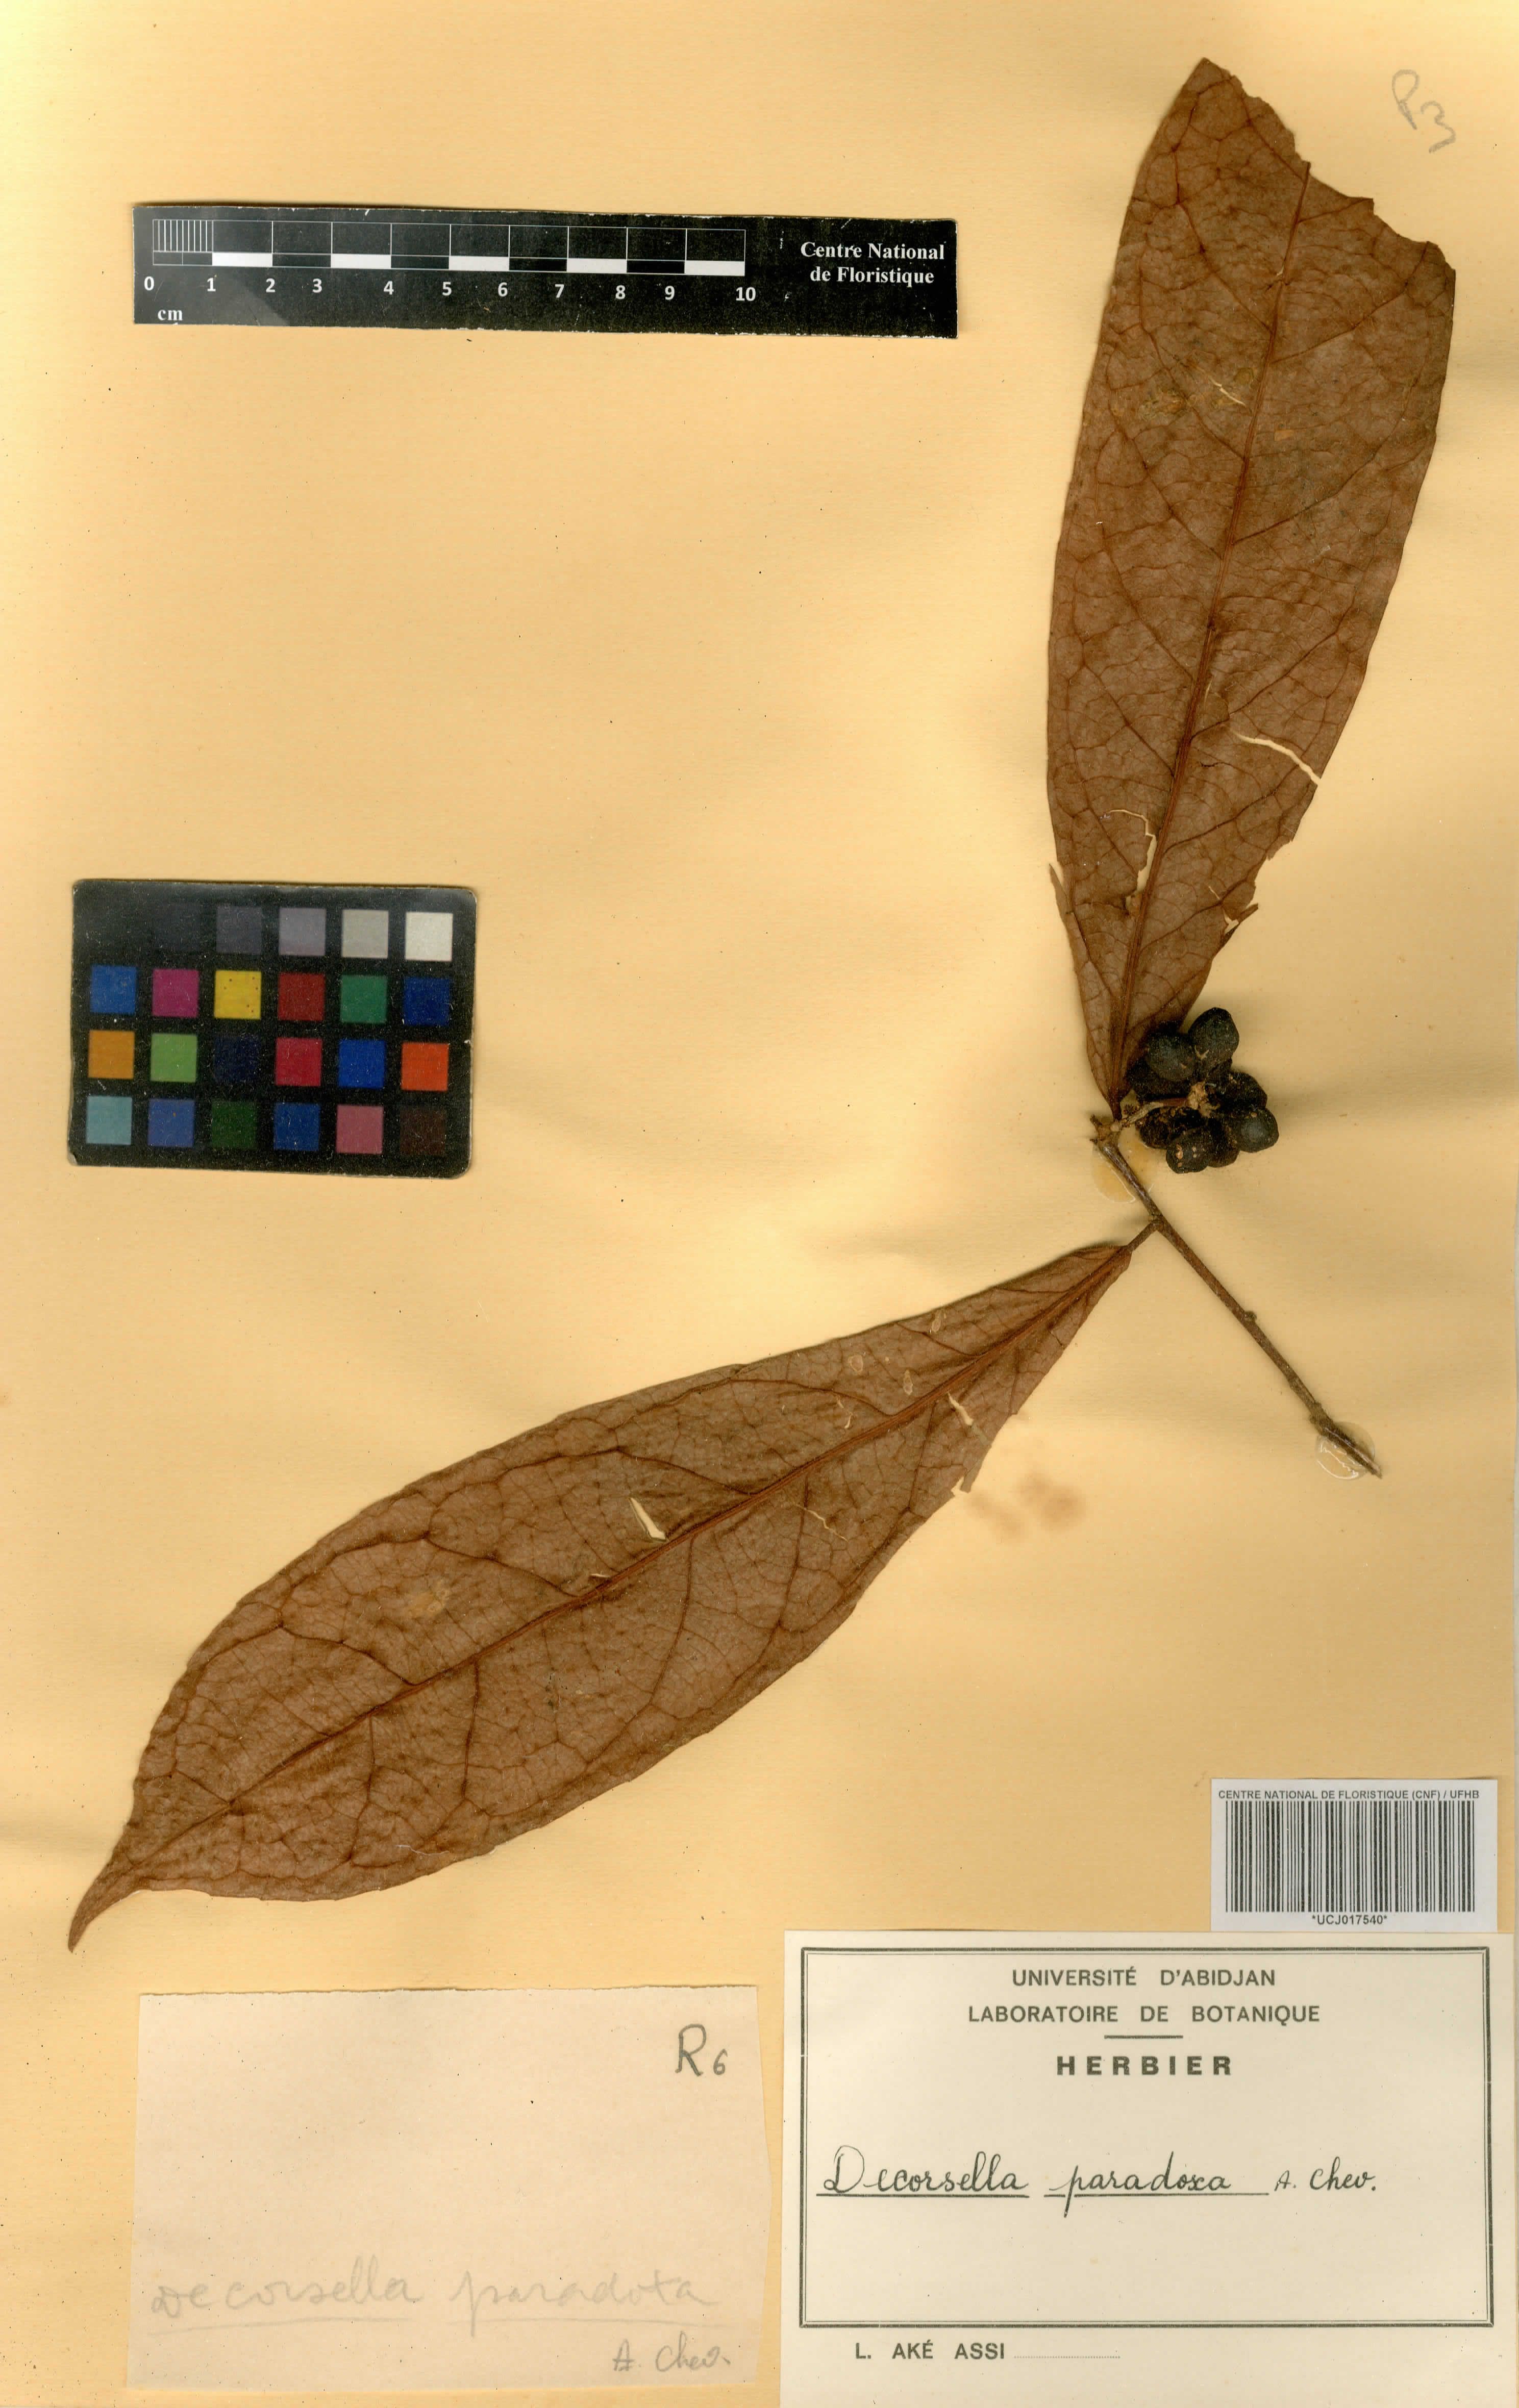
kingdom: Plantae
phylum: Tracheophyta
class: Magnoliopsida
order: Malpighiales
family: Violaceae
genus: Decorsella
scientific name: Decorsella paradoxa
